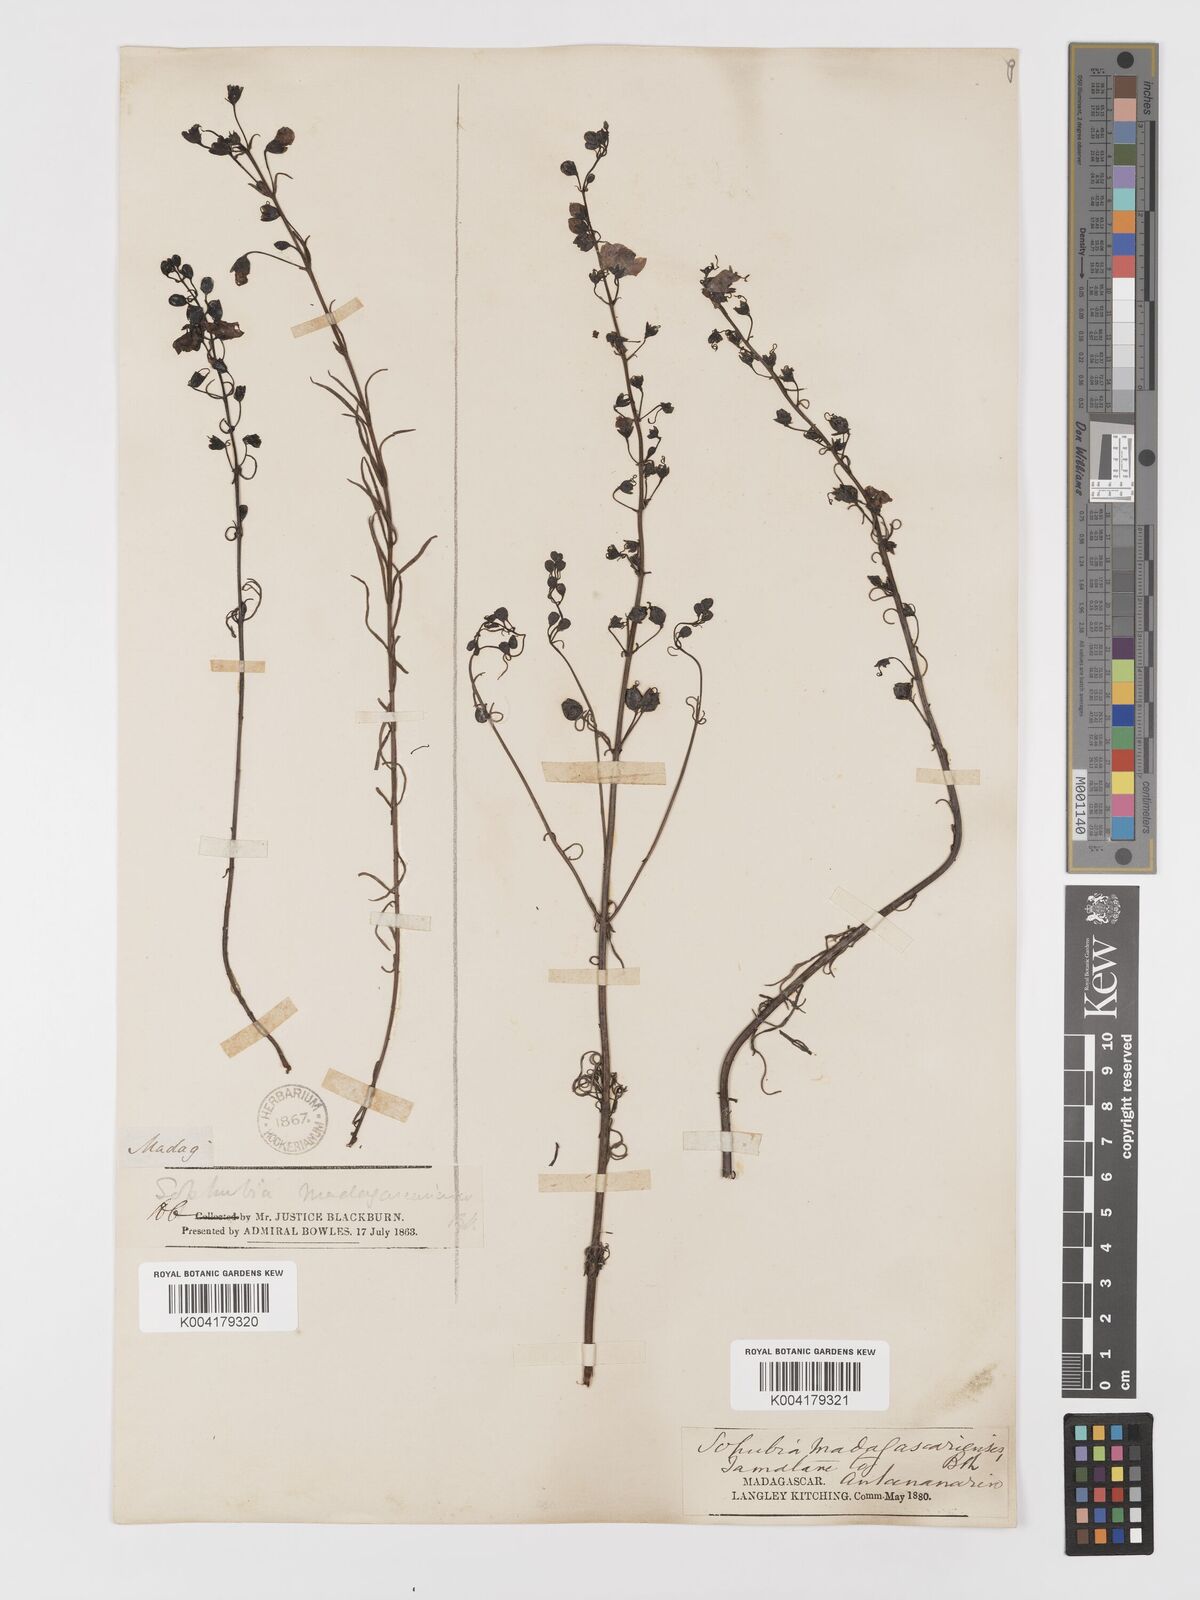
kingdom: Plantae
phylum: Tracheophyta
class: Magnoliopsida
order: Lamiales
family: Orobanchaceae
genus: Sopubia
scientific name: Sopubia trifida
